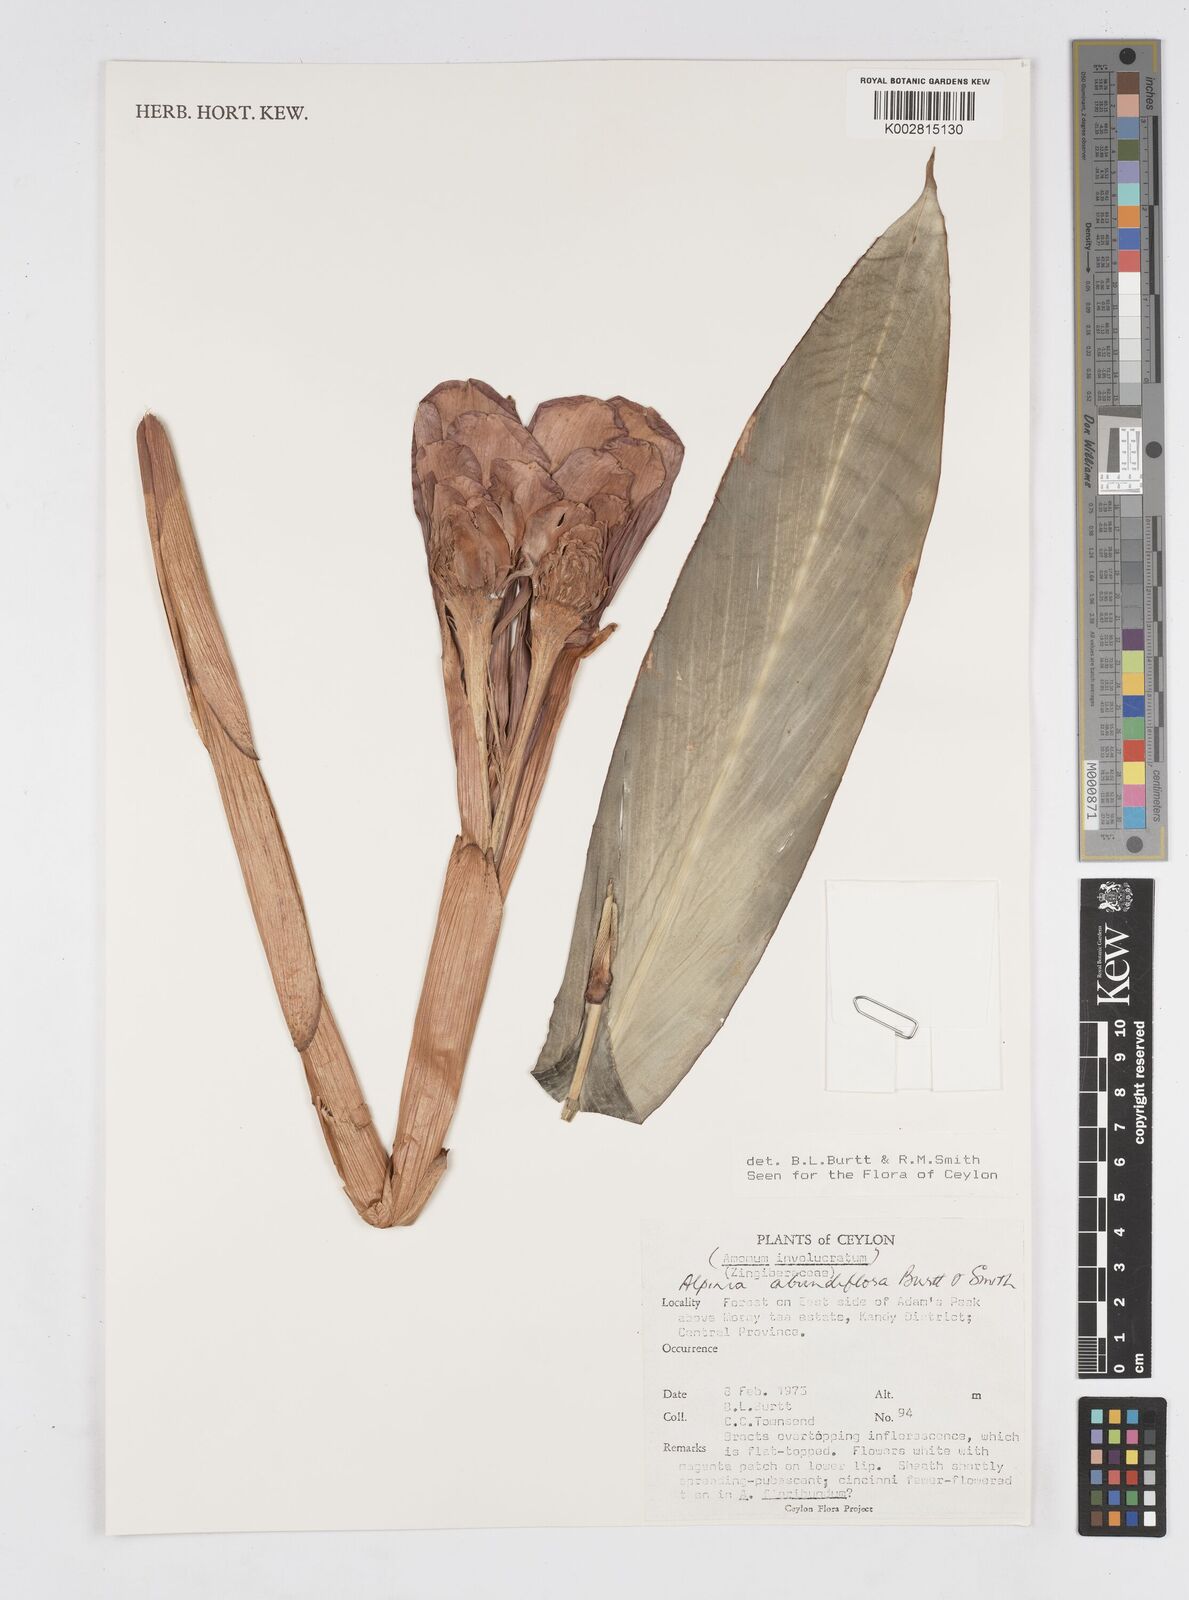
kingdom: Plantae
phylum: Tracheophyta
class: Liliopsida
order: Zingiberales
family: Zingiberaceae
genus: Alpinia
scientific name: Alpinia abundiflora
